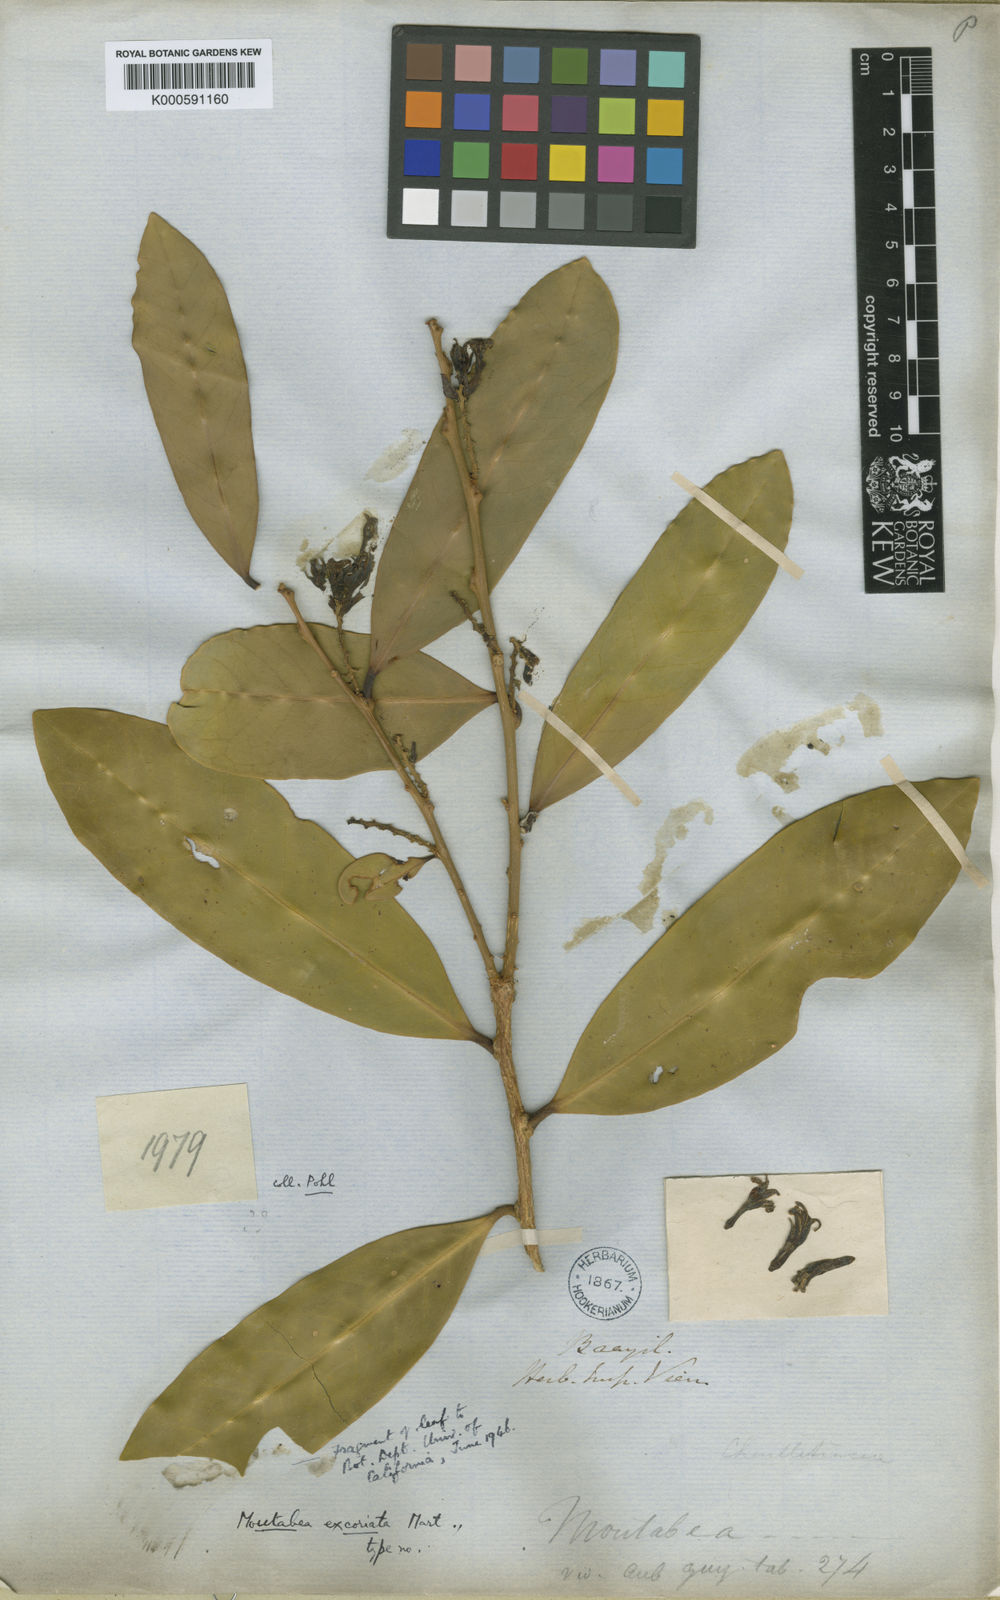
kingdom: Plantae
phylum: Tracheophyta
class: Magnoliopsida
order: Fabales
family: Polygalaceae
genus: Moutabea
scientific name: Moutabea excoriata
